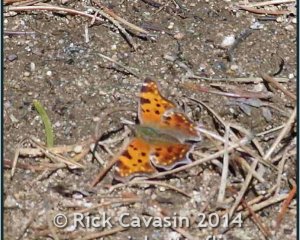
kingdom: Animalia
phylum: Arthropoda
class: Insecta
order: Lepidoptera
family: Nymphalidae
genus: Polygonia
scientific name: Polygonia comma
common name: Eastern Comma
